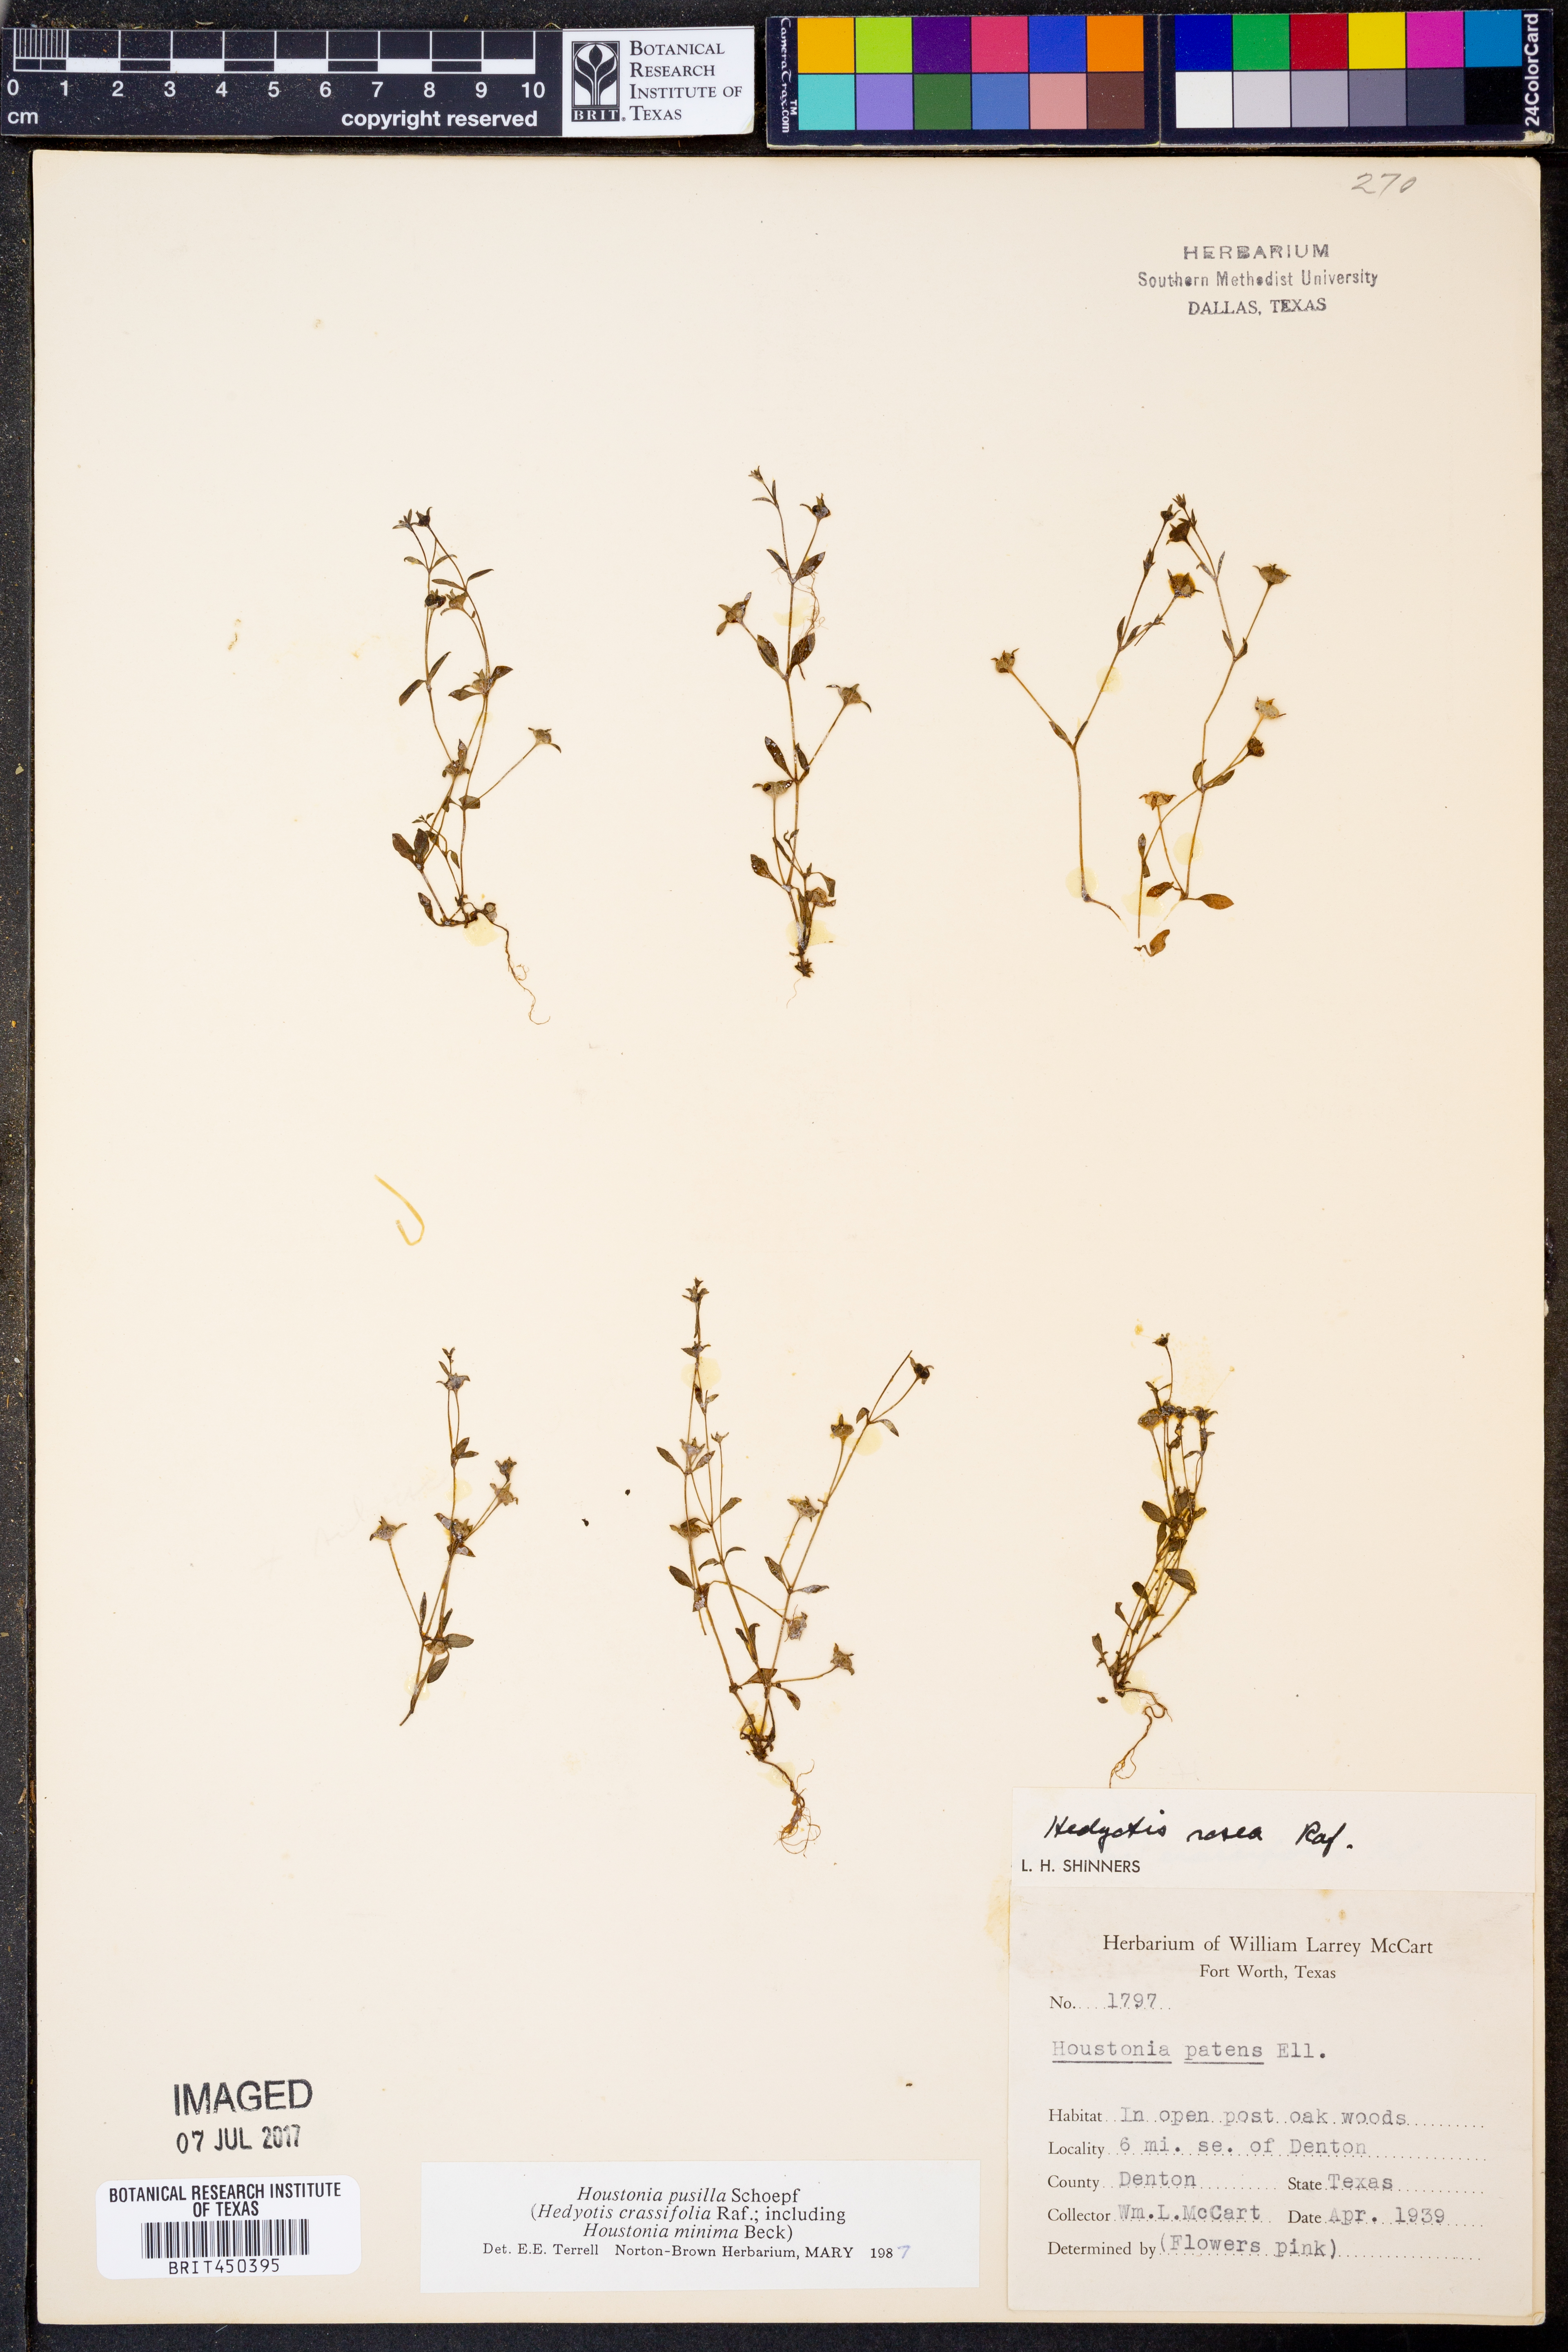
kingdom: Plantae
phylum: Tracheophyta
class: Magnoliopsida
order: Gentianales
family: Rubiaceae
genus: Houstonia
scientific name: Houstonia pusilla
